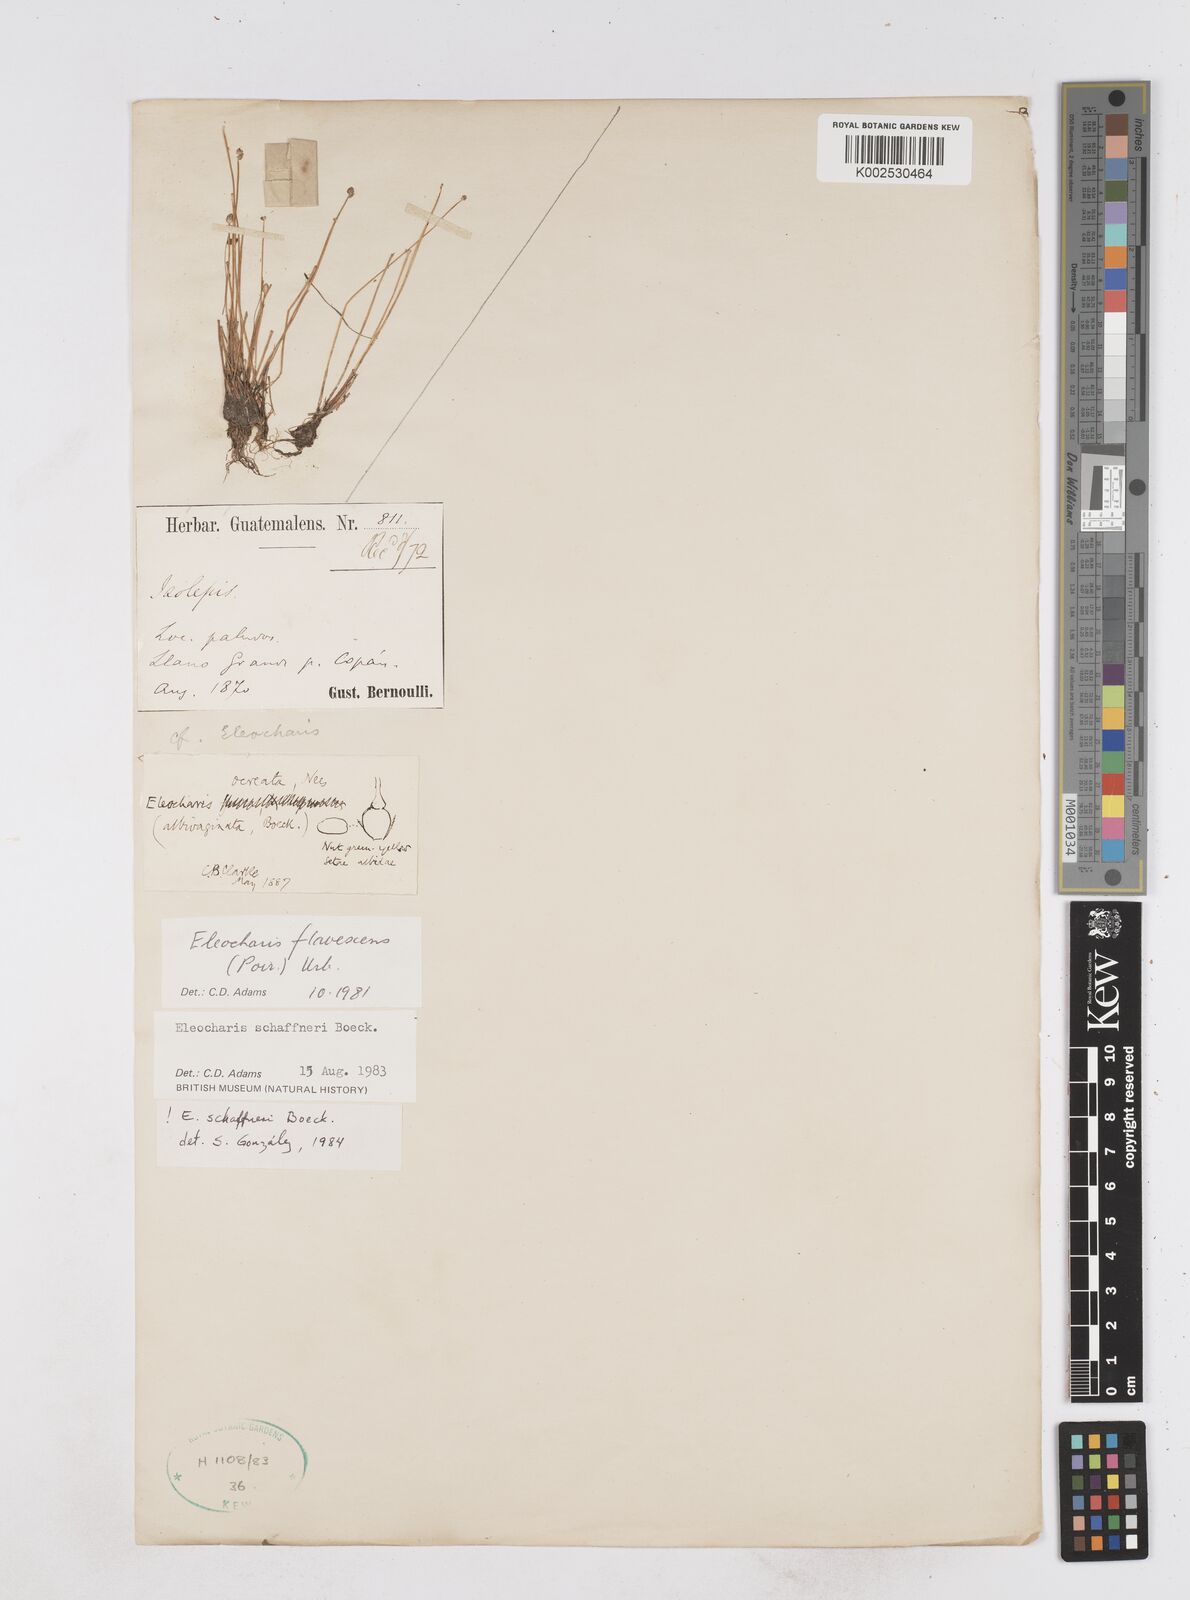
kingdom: Plantae
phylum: Tracheophyta
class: Liliopsida
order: Poales
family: Cyperaceae
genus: Eleocharis
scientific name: Eleocharis flavescens
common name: Yellow spikerush
